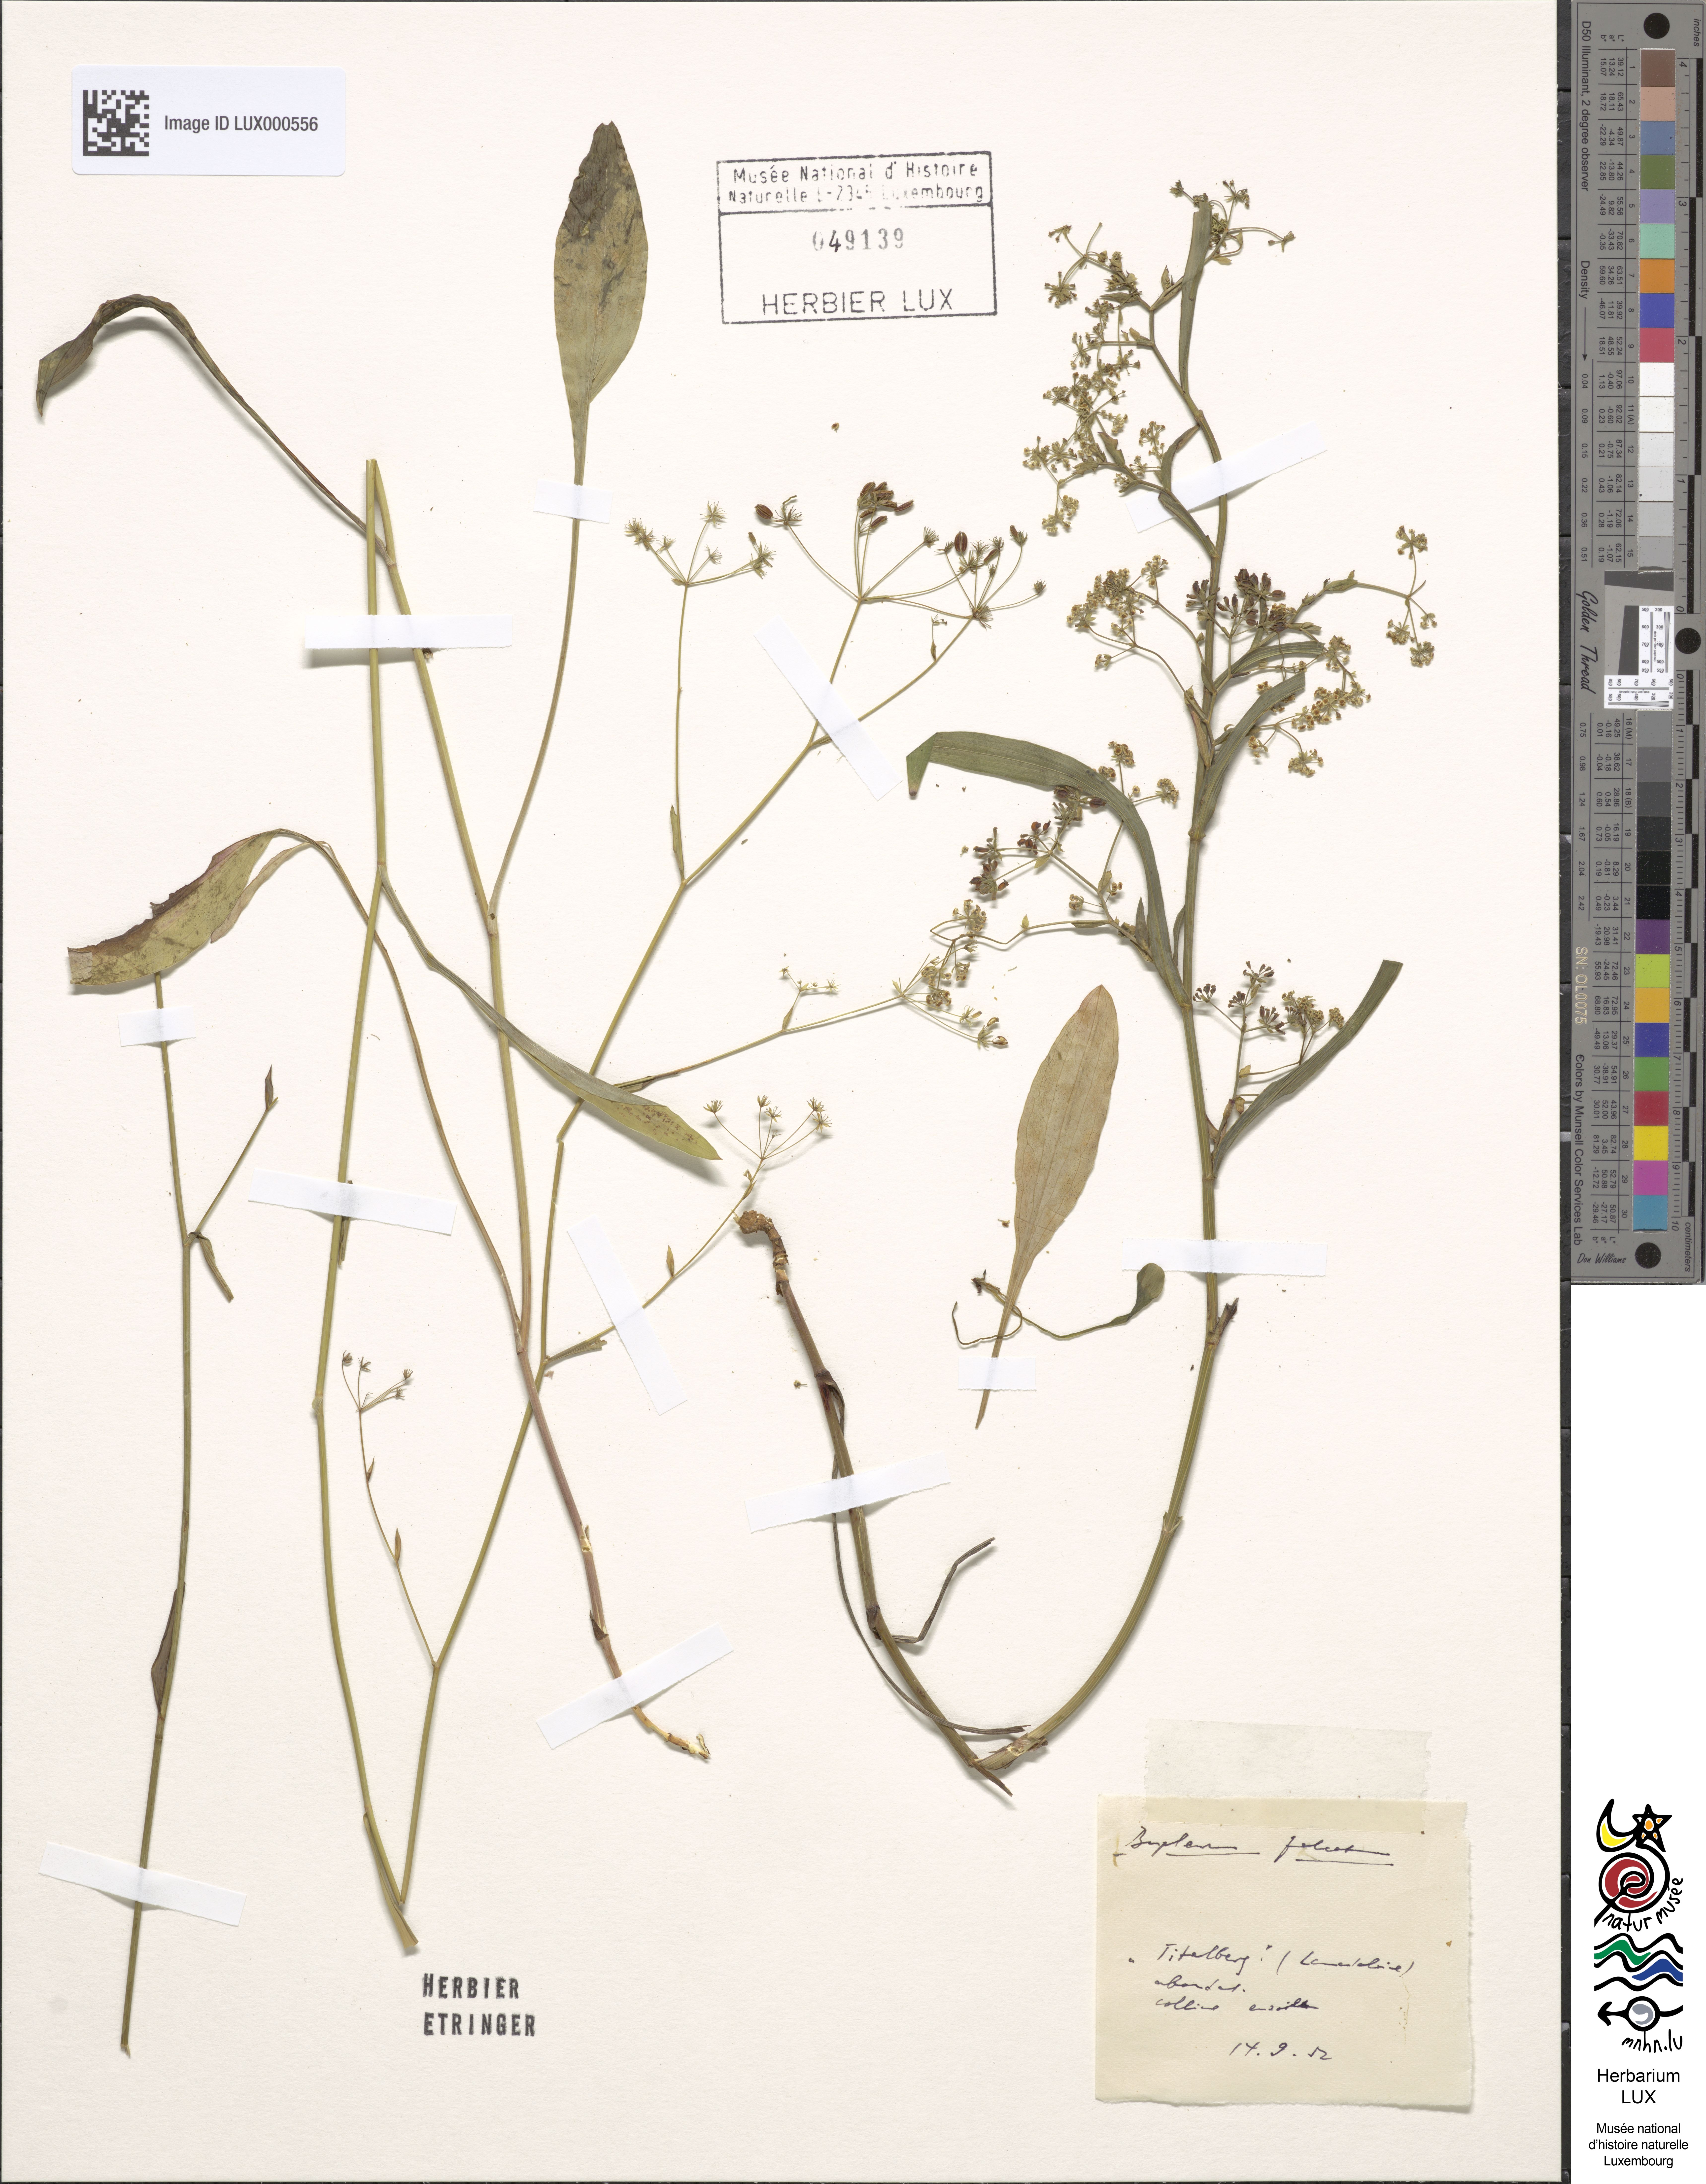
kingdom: Plantae
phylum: Tracheophyta
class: Magnoliopsida
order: Apiales
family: Apiaceae
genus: Bupleurum
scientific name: Bupleurum falcatum
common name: Sickle-leaved hare's-ear
